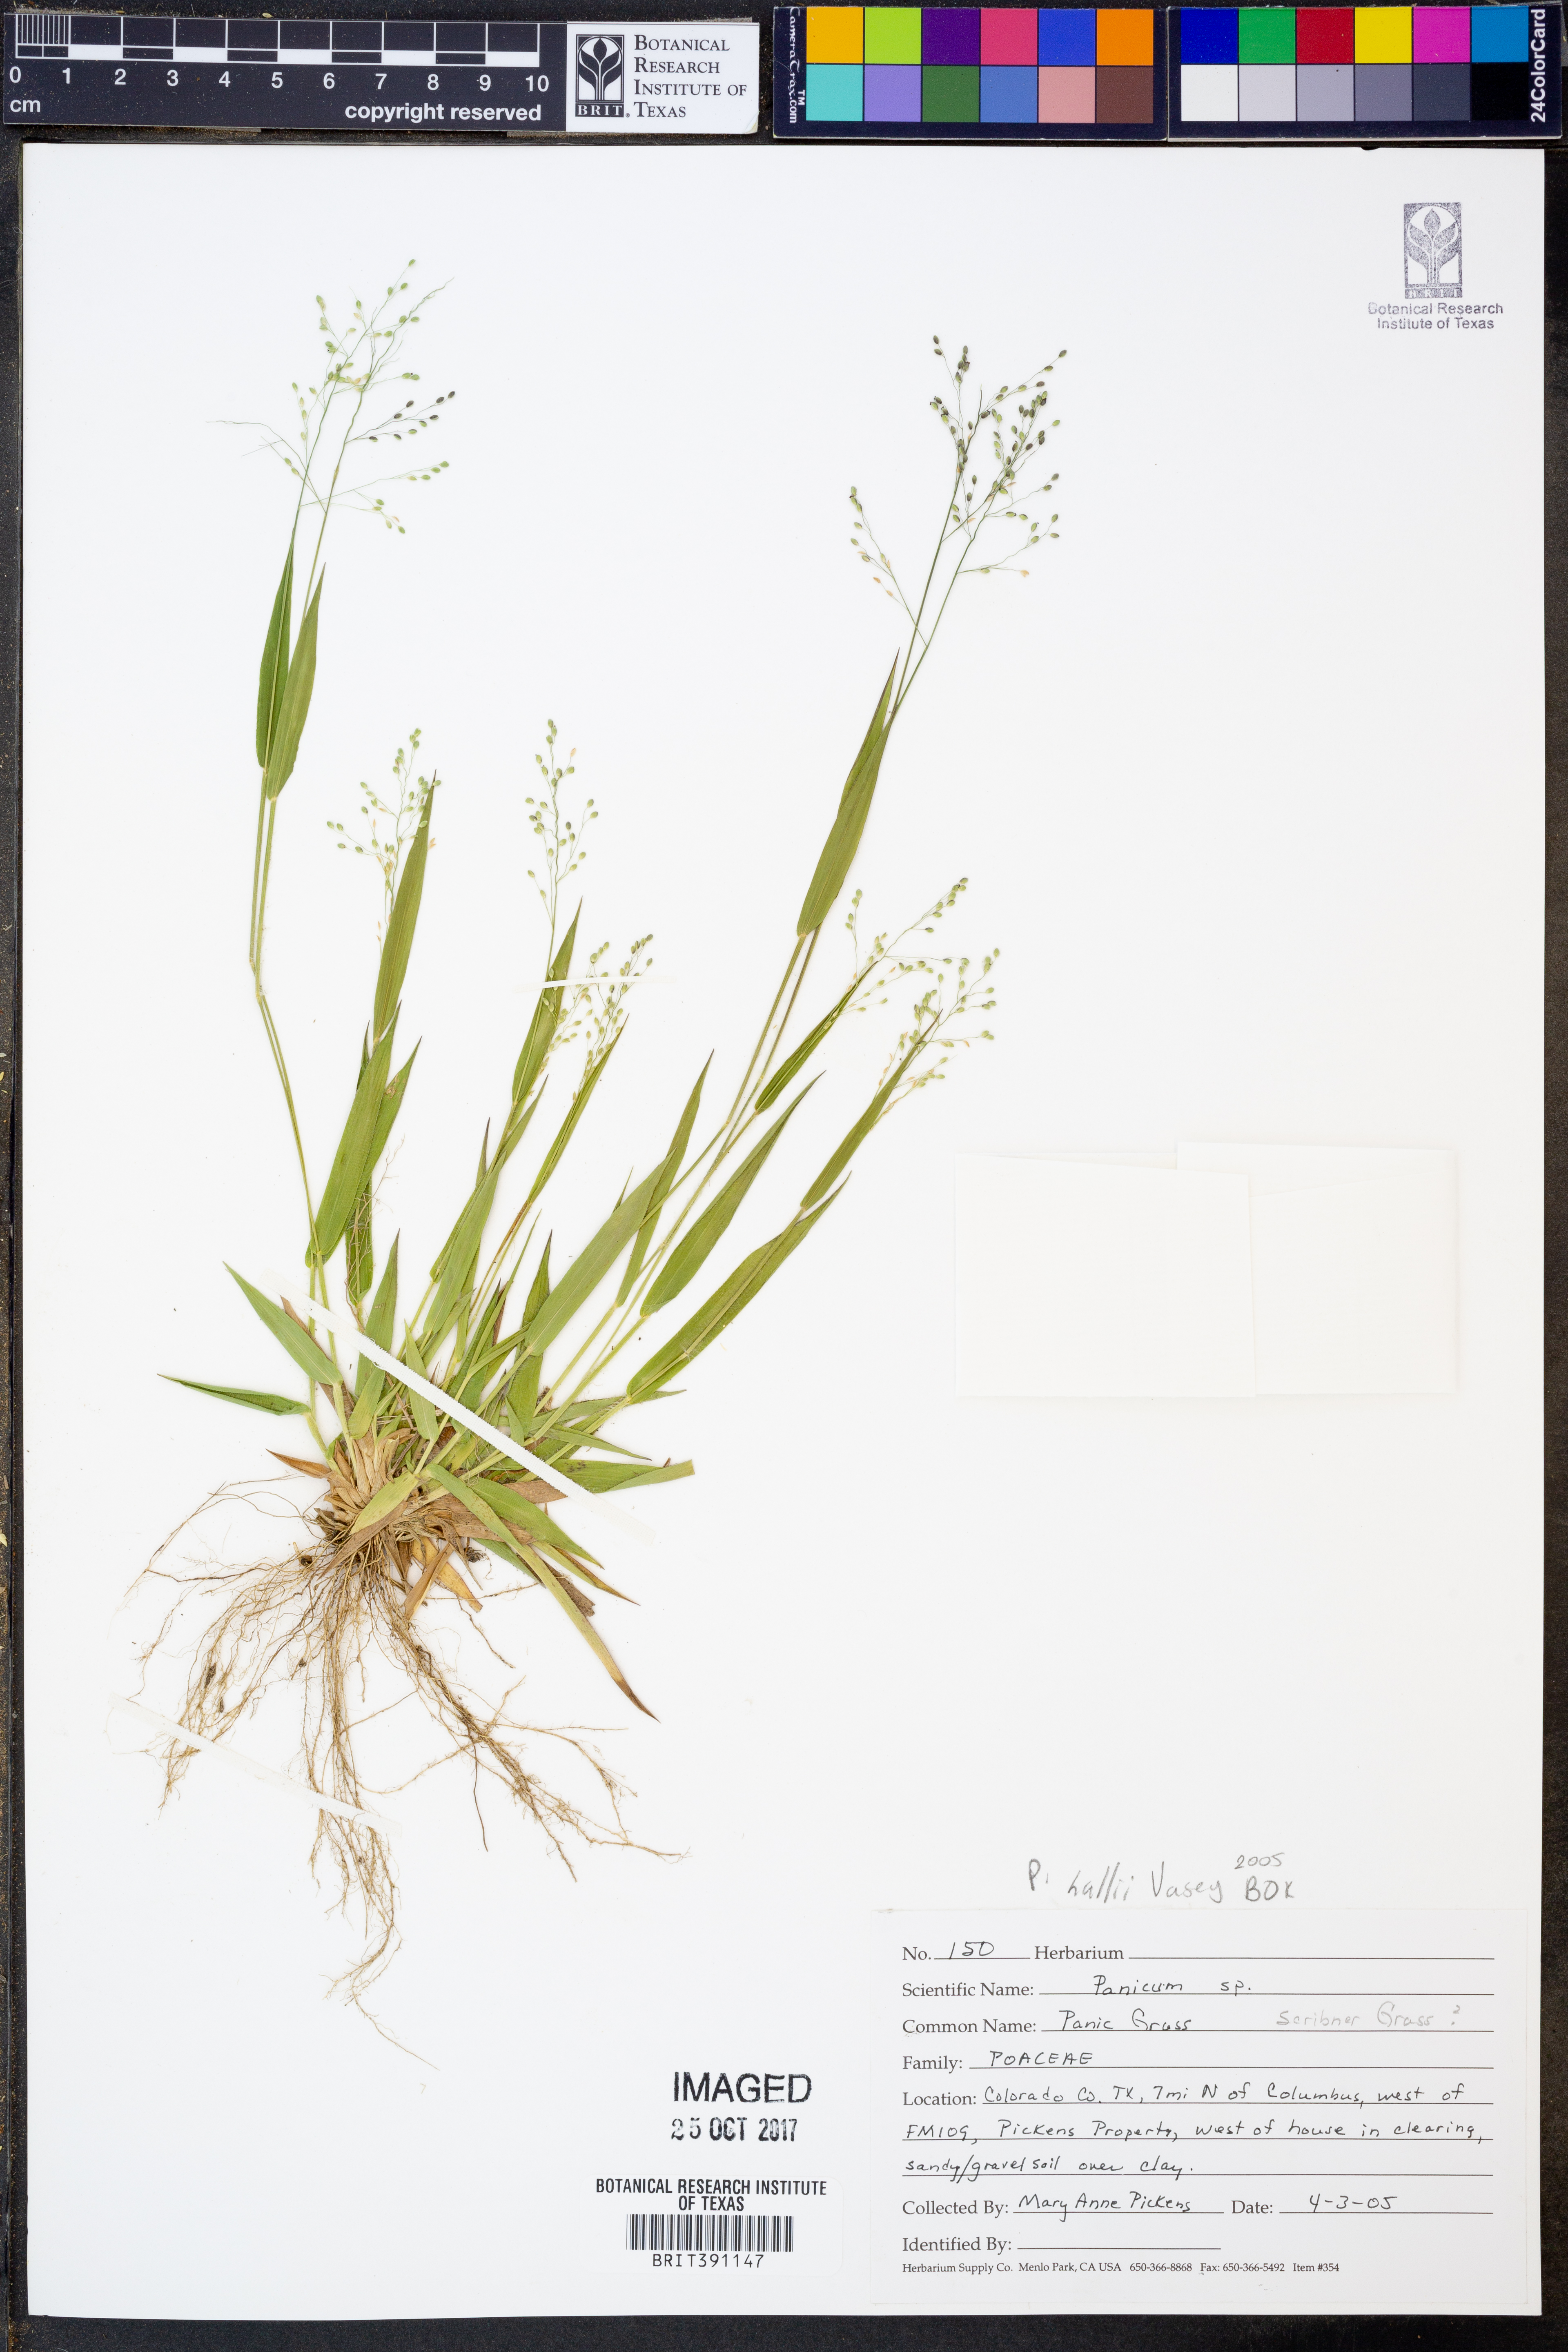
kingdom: Plantae
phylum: Tracheophyta
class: Liliopsida
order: Poales
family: Poaceae
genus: Panicum
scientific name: Panicum hallii
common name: Hall's witchgrass
